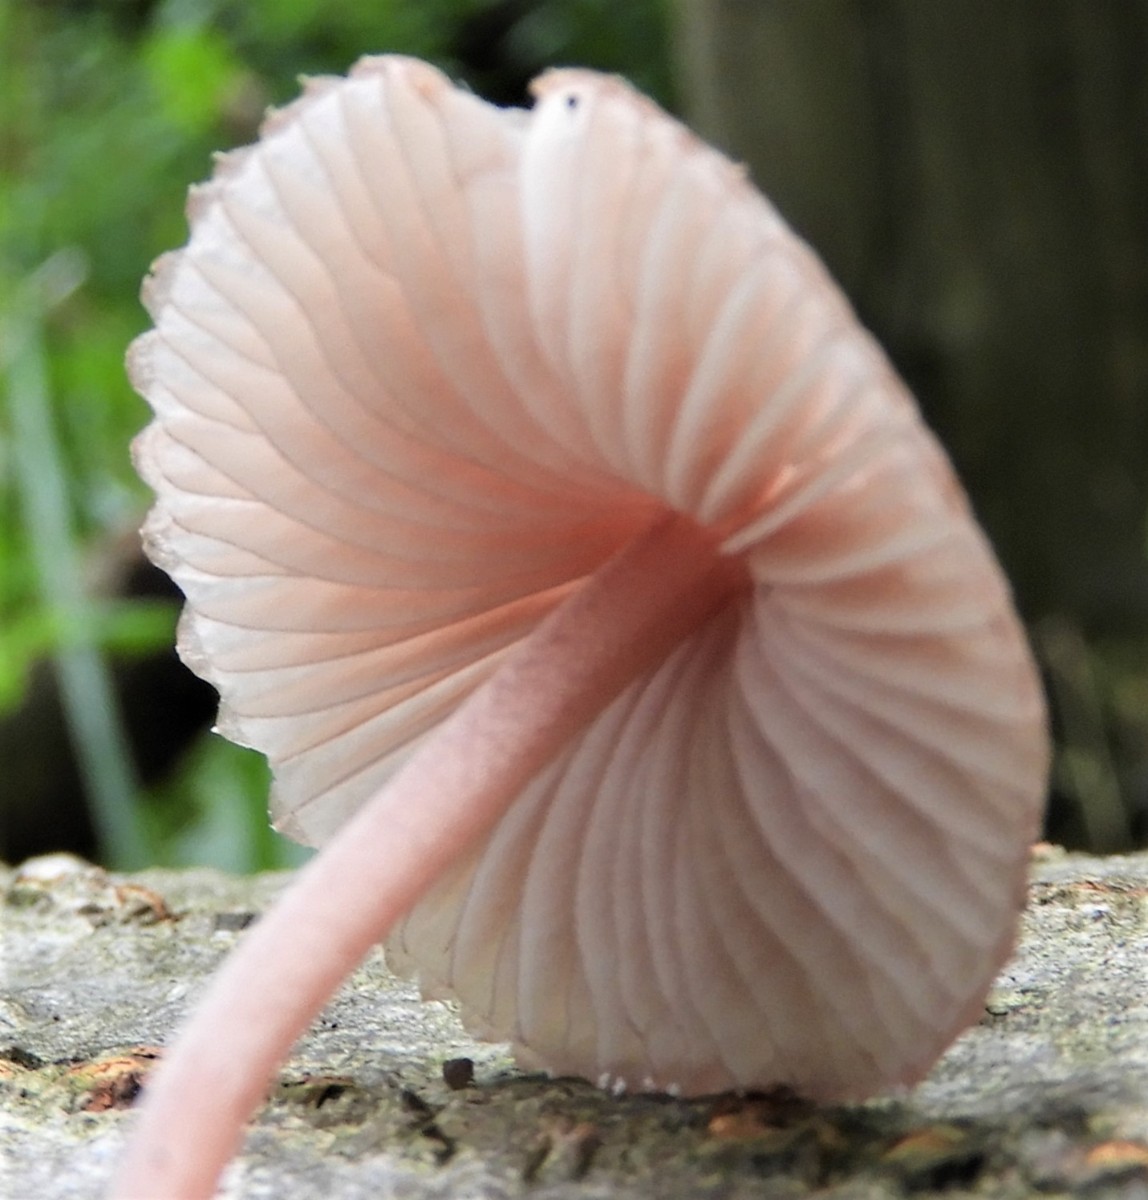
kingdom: Fungi
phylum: Basidiomycota
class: Agaricomycetes
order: Agaricales
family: Mycenaceae
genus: Mycena
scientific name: Mycena haematopus
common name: blødende huesvamp
